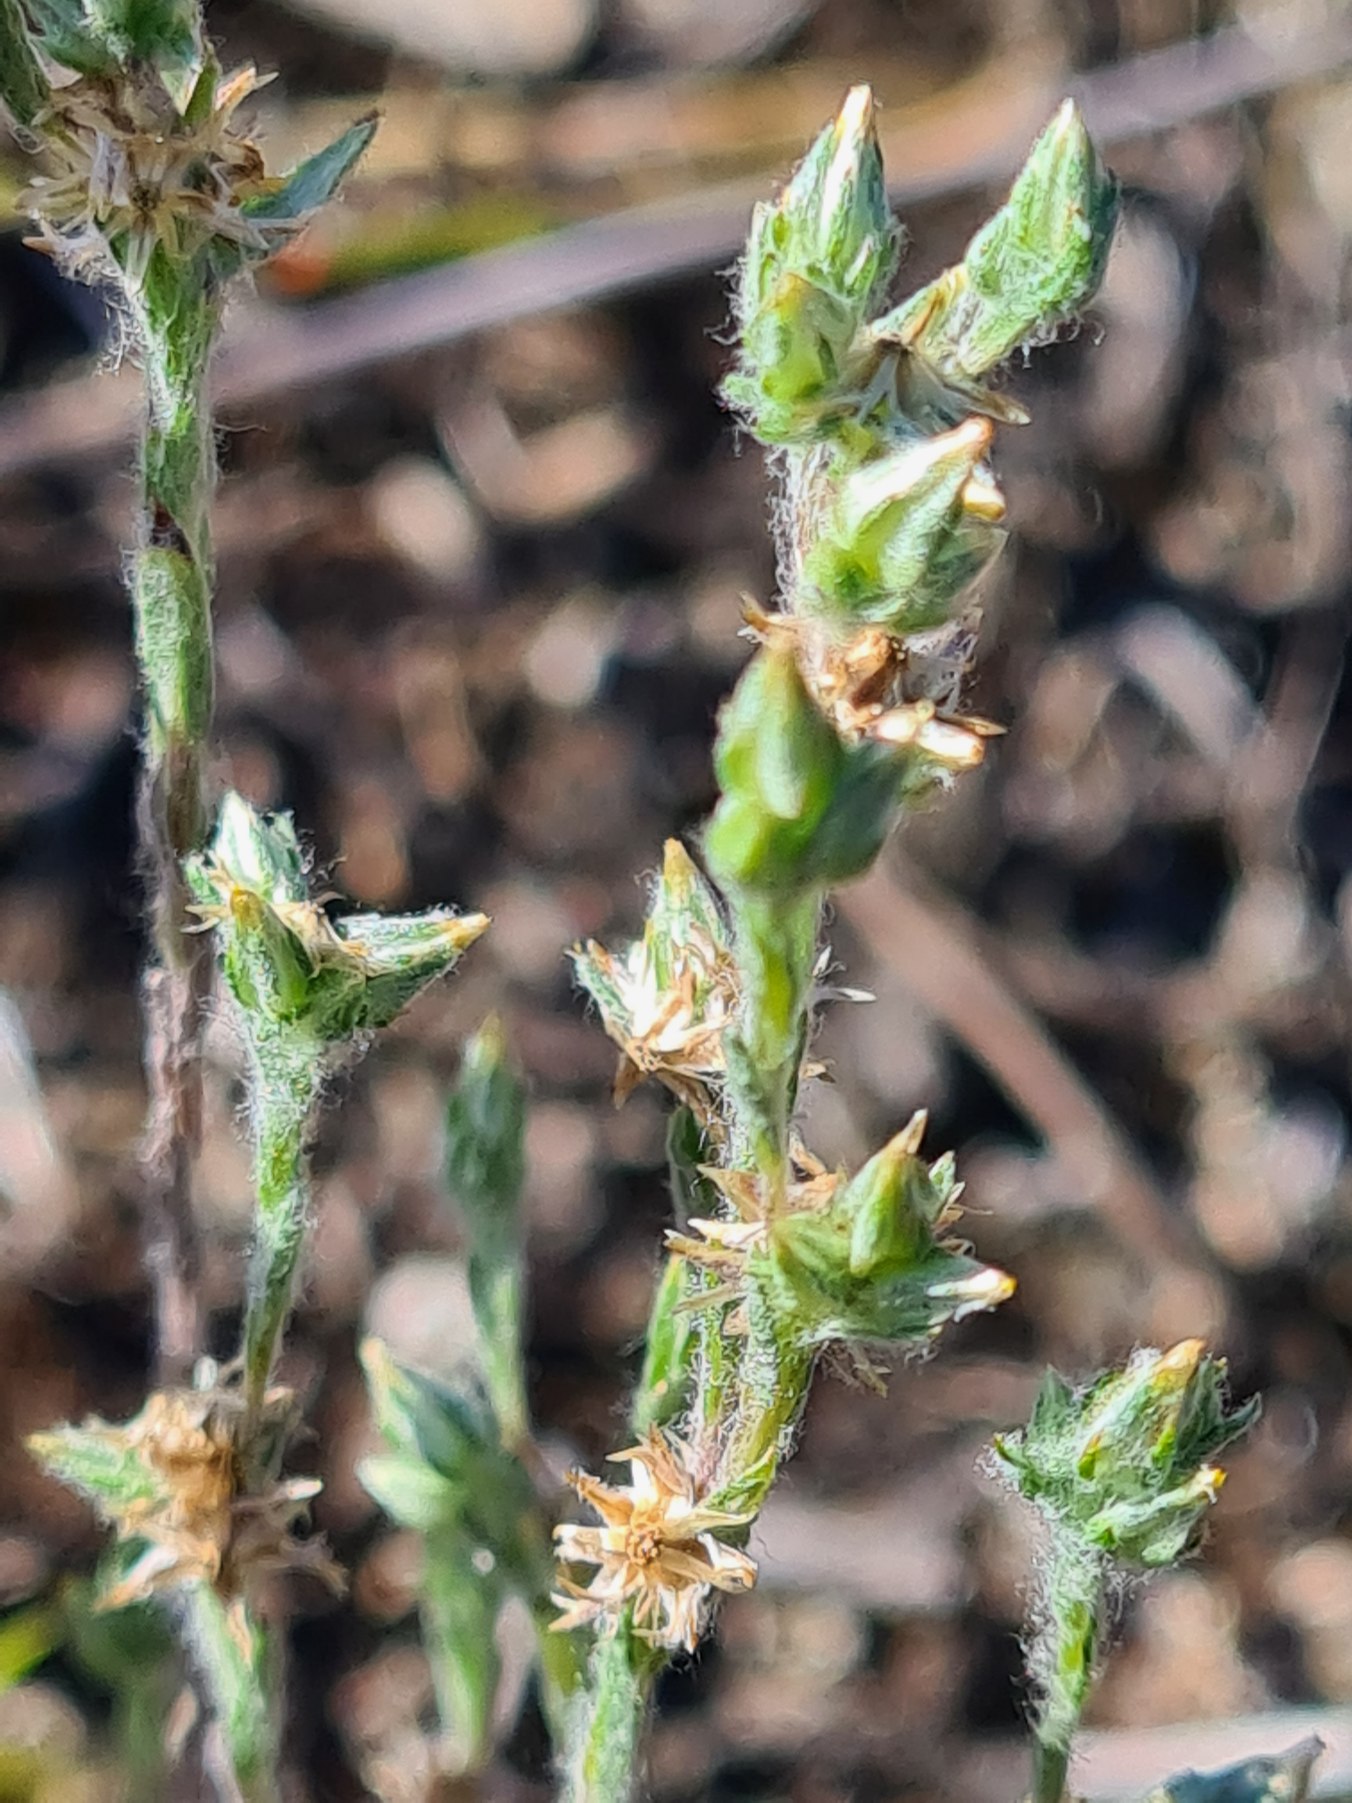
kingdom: Plantae
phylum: Tracheophyta
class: Magnoliopsida
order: Asterales
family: Asteraceae
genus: Logfia
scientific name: Logfia minima
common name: Liden museurt
